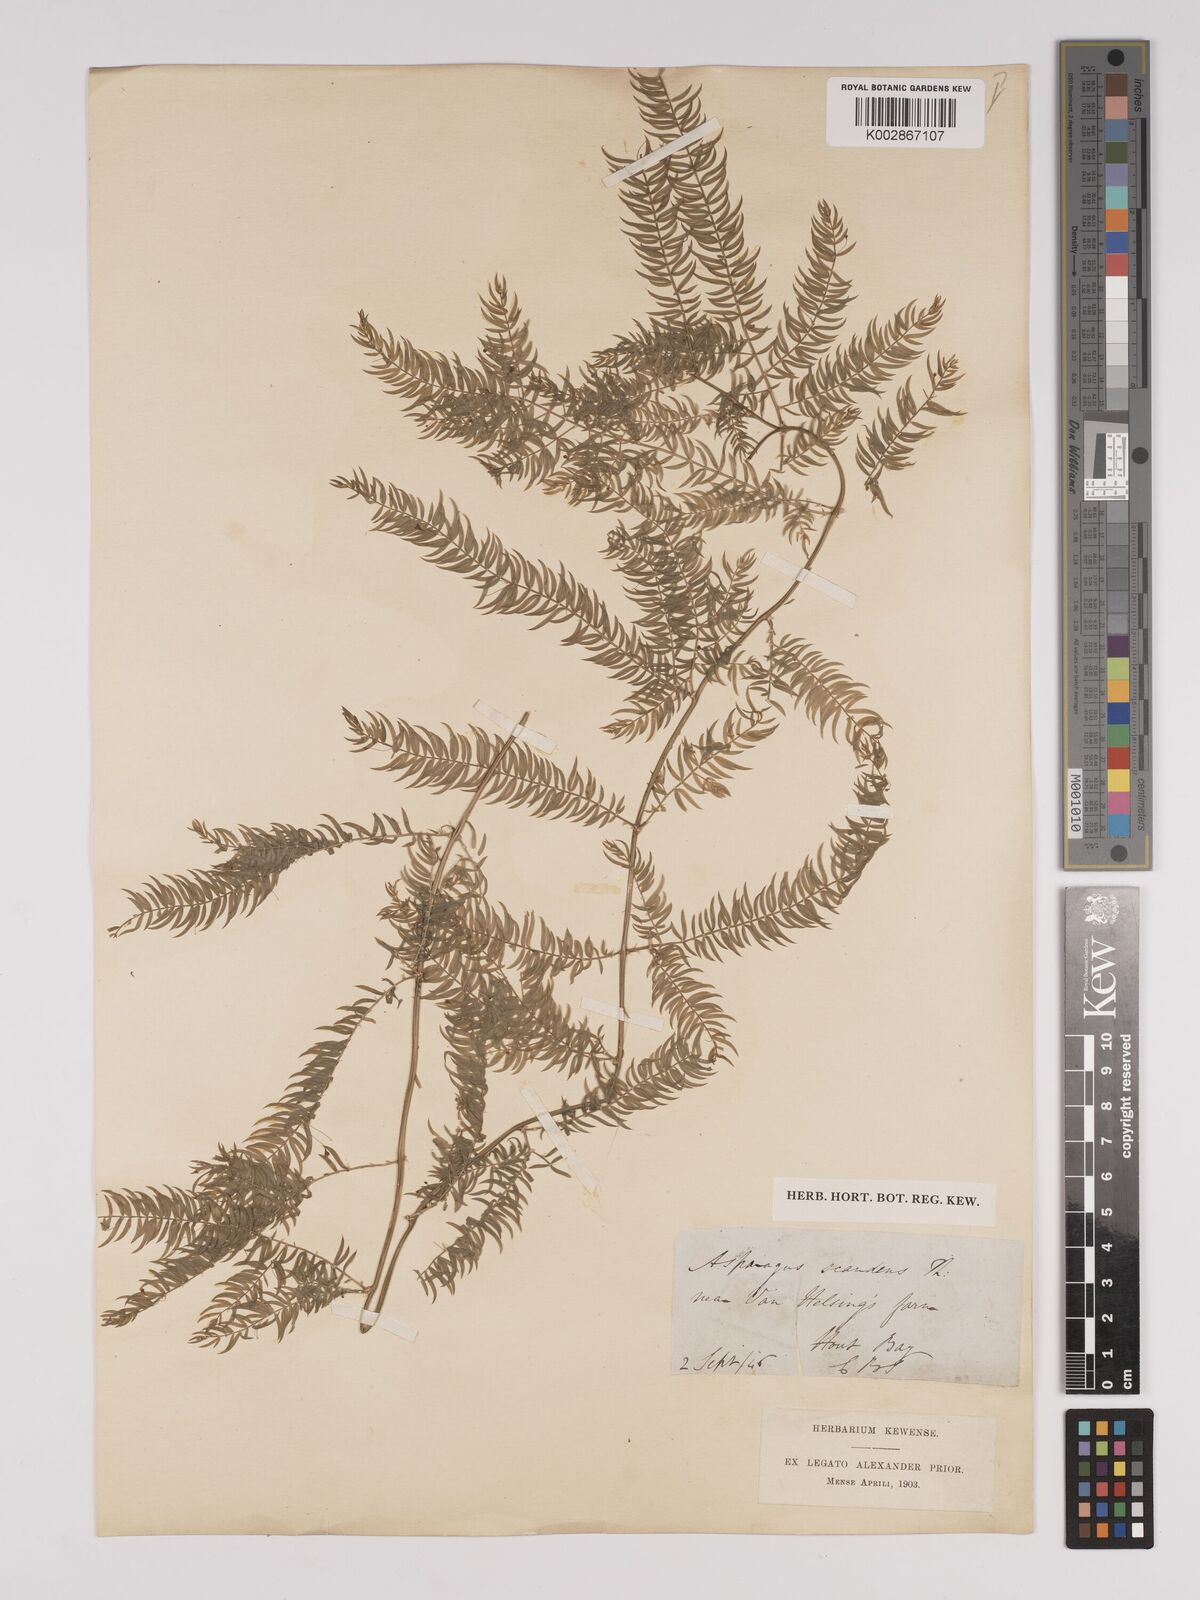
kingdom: Plantae
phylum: Tracheophyta
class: Liliopsida
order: Asparagales
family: Asparagaceae
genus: Asparagus
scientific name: Asparagus scandens
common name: Asparagus-fern
